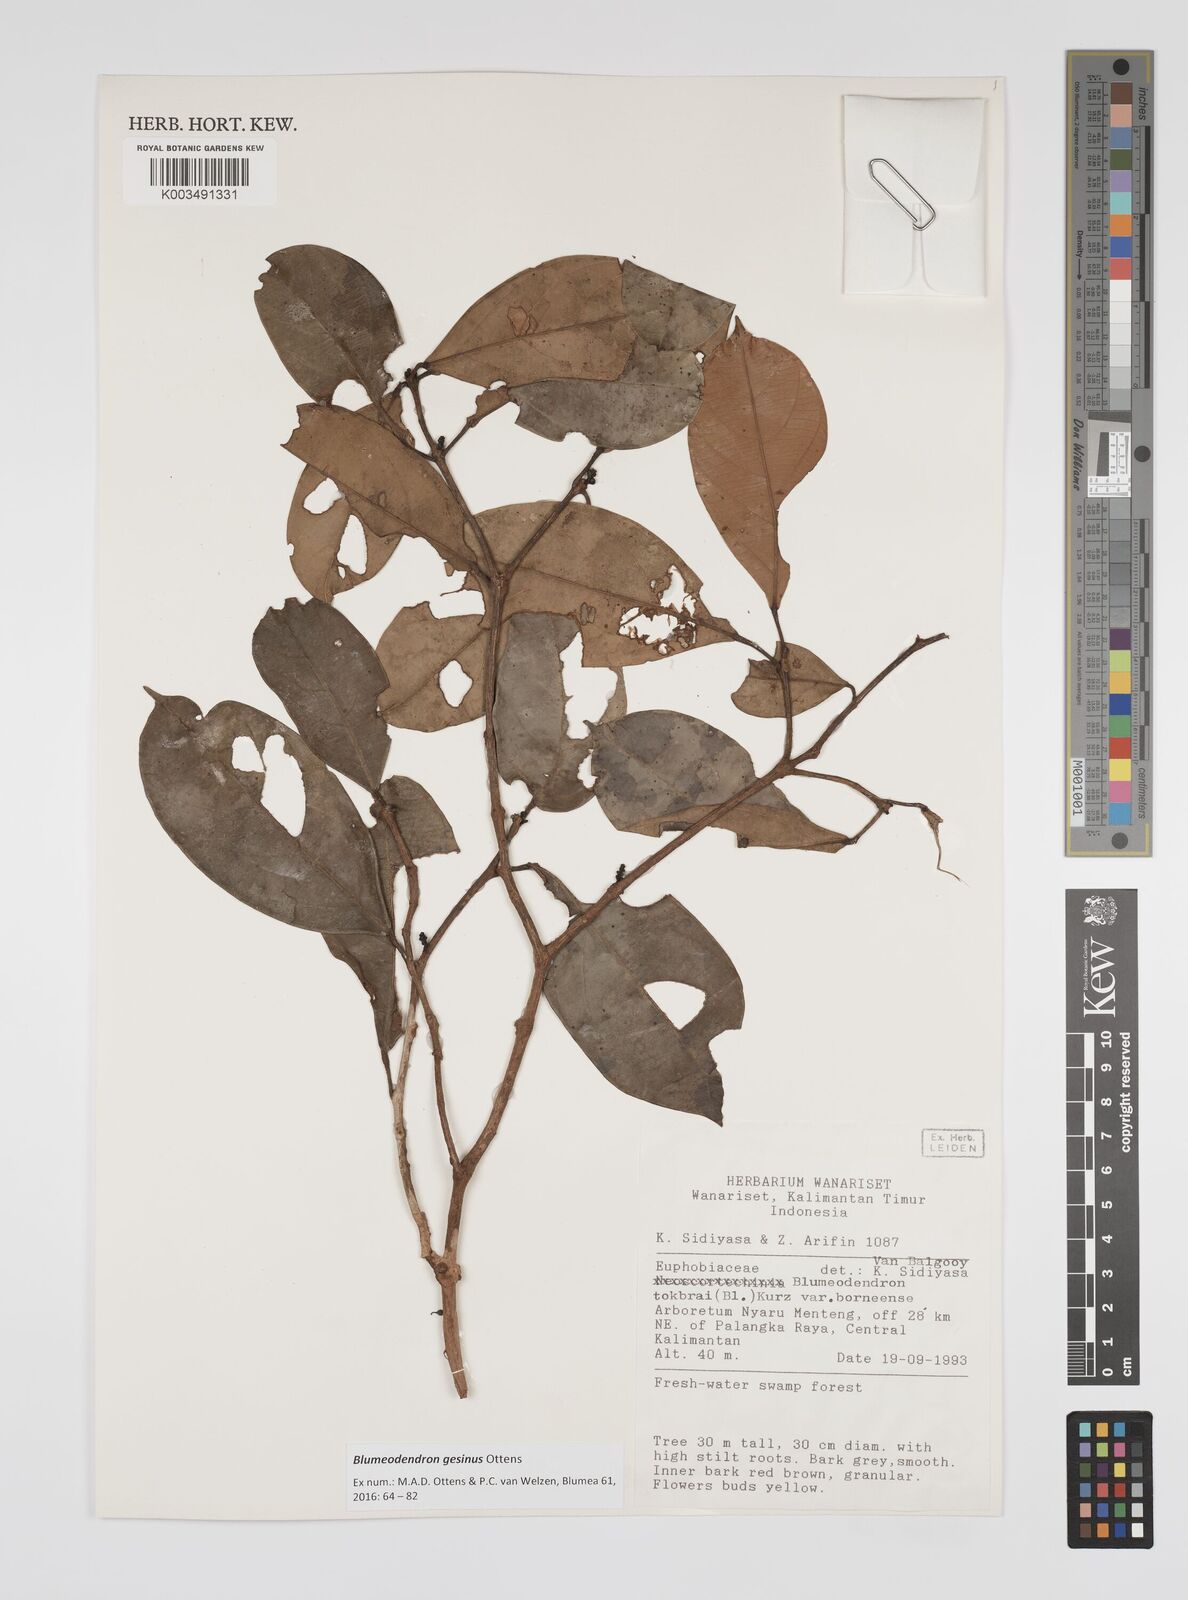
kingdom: Plantae
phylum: Tracheophyta
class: Magnoliopsida
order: Malpighiales
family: Euphorbiaceae
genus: Blumeodendron
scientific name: Blumeodendron gesinus
